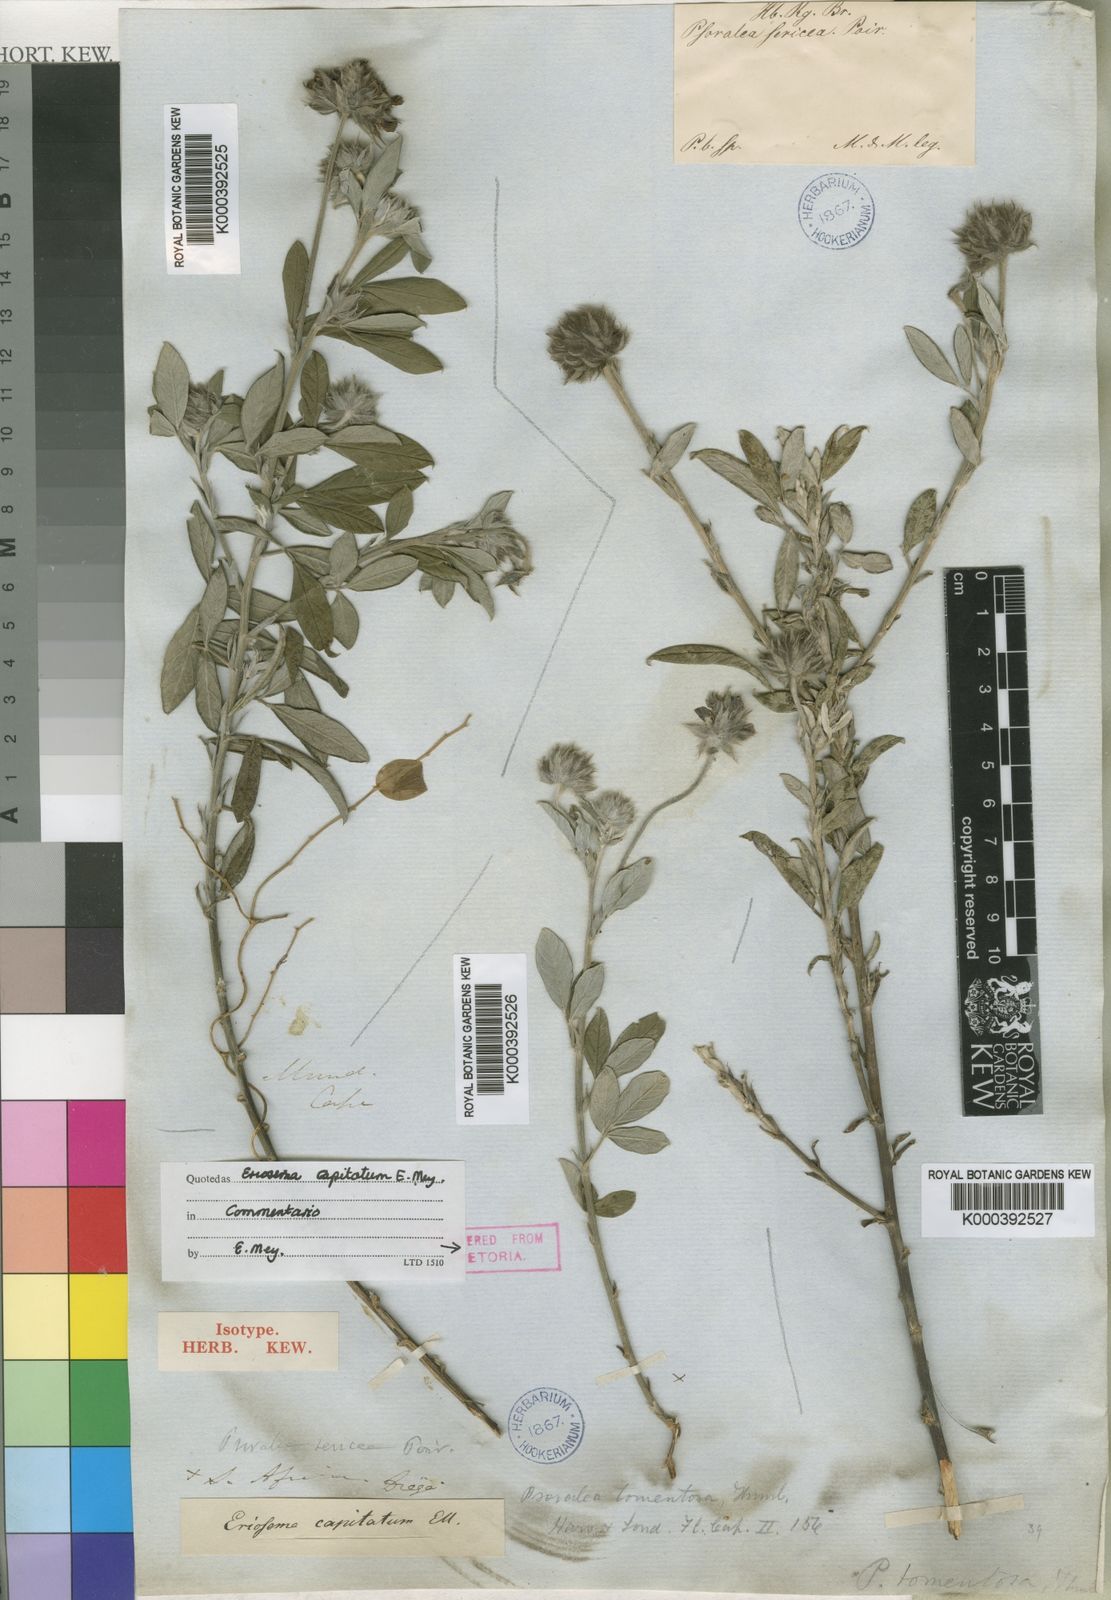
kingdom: Plantae
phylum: Tracheophyta
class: Magnoliopsida
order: Fabales
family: Fabaceae
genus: Psoralea
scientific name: Psoralea sericea
